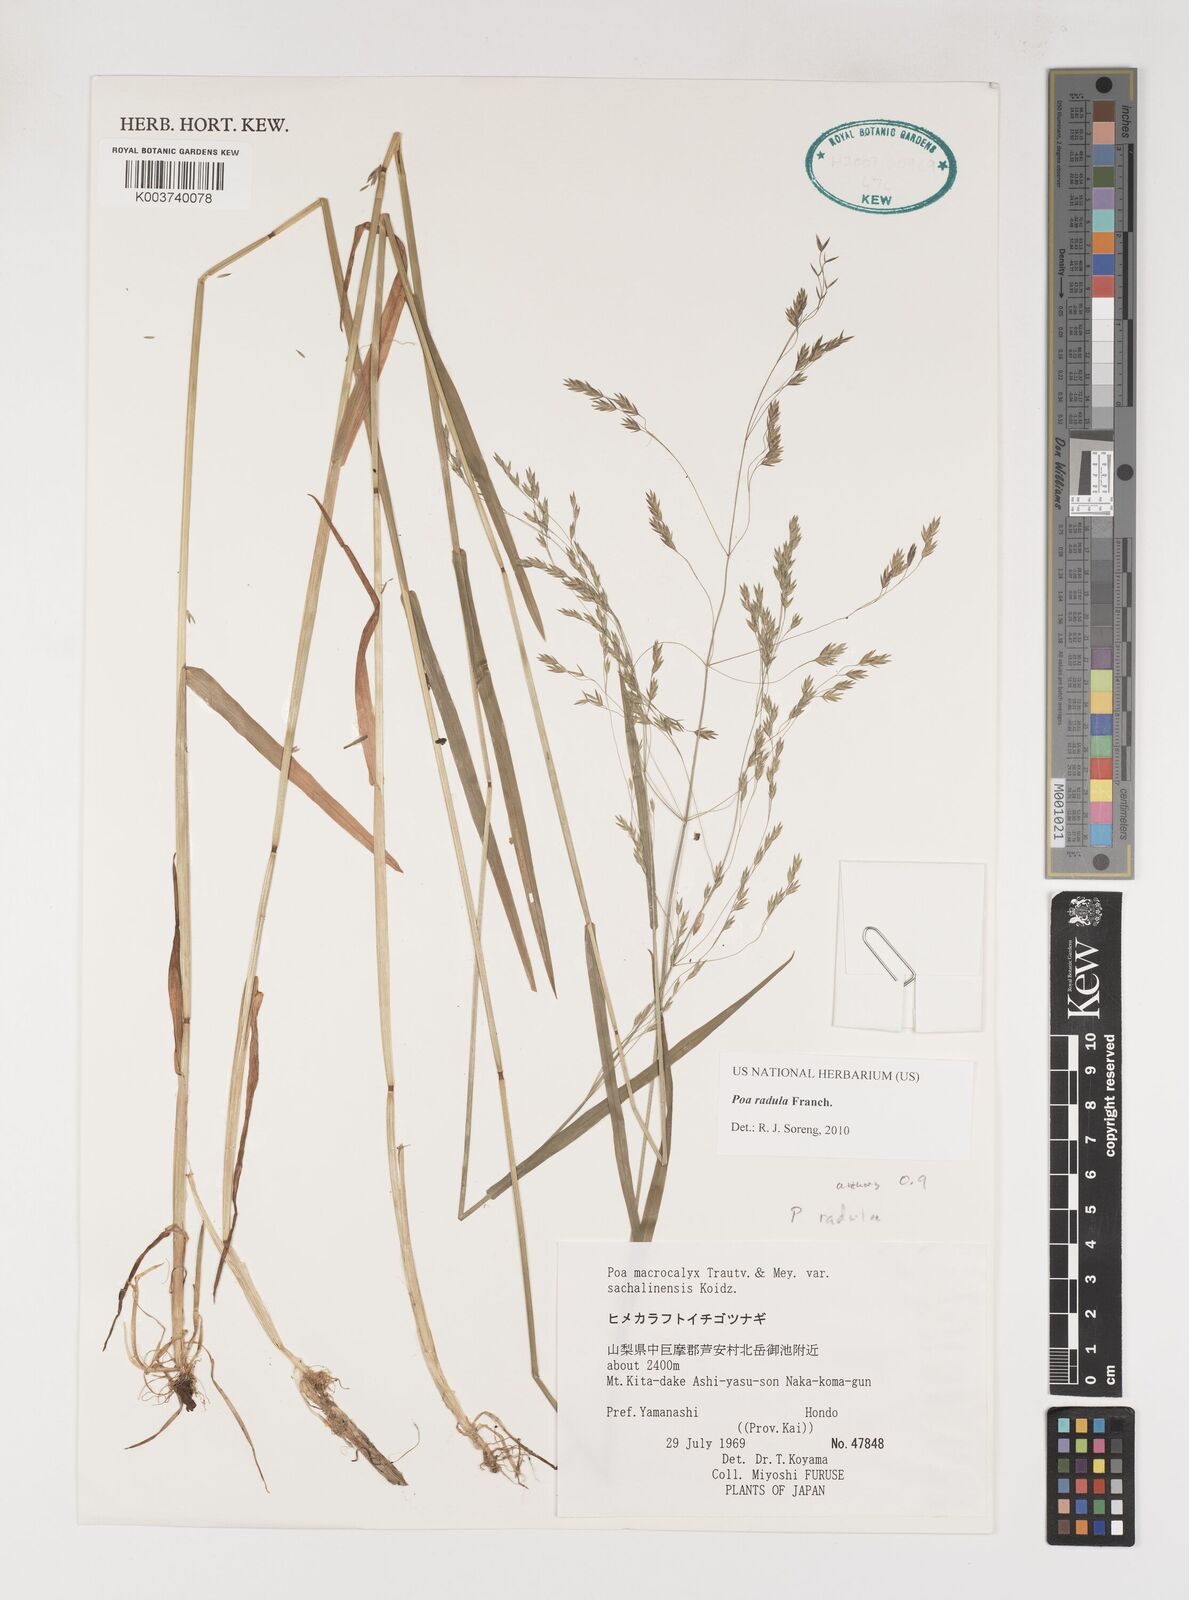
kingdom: Plantae
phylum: Tracheophyta
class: Liliopsida
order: Poales
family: Poaceae
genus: Poa
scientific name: Poa radula
